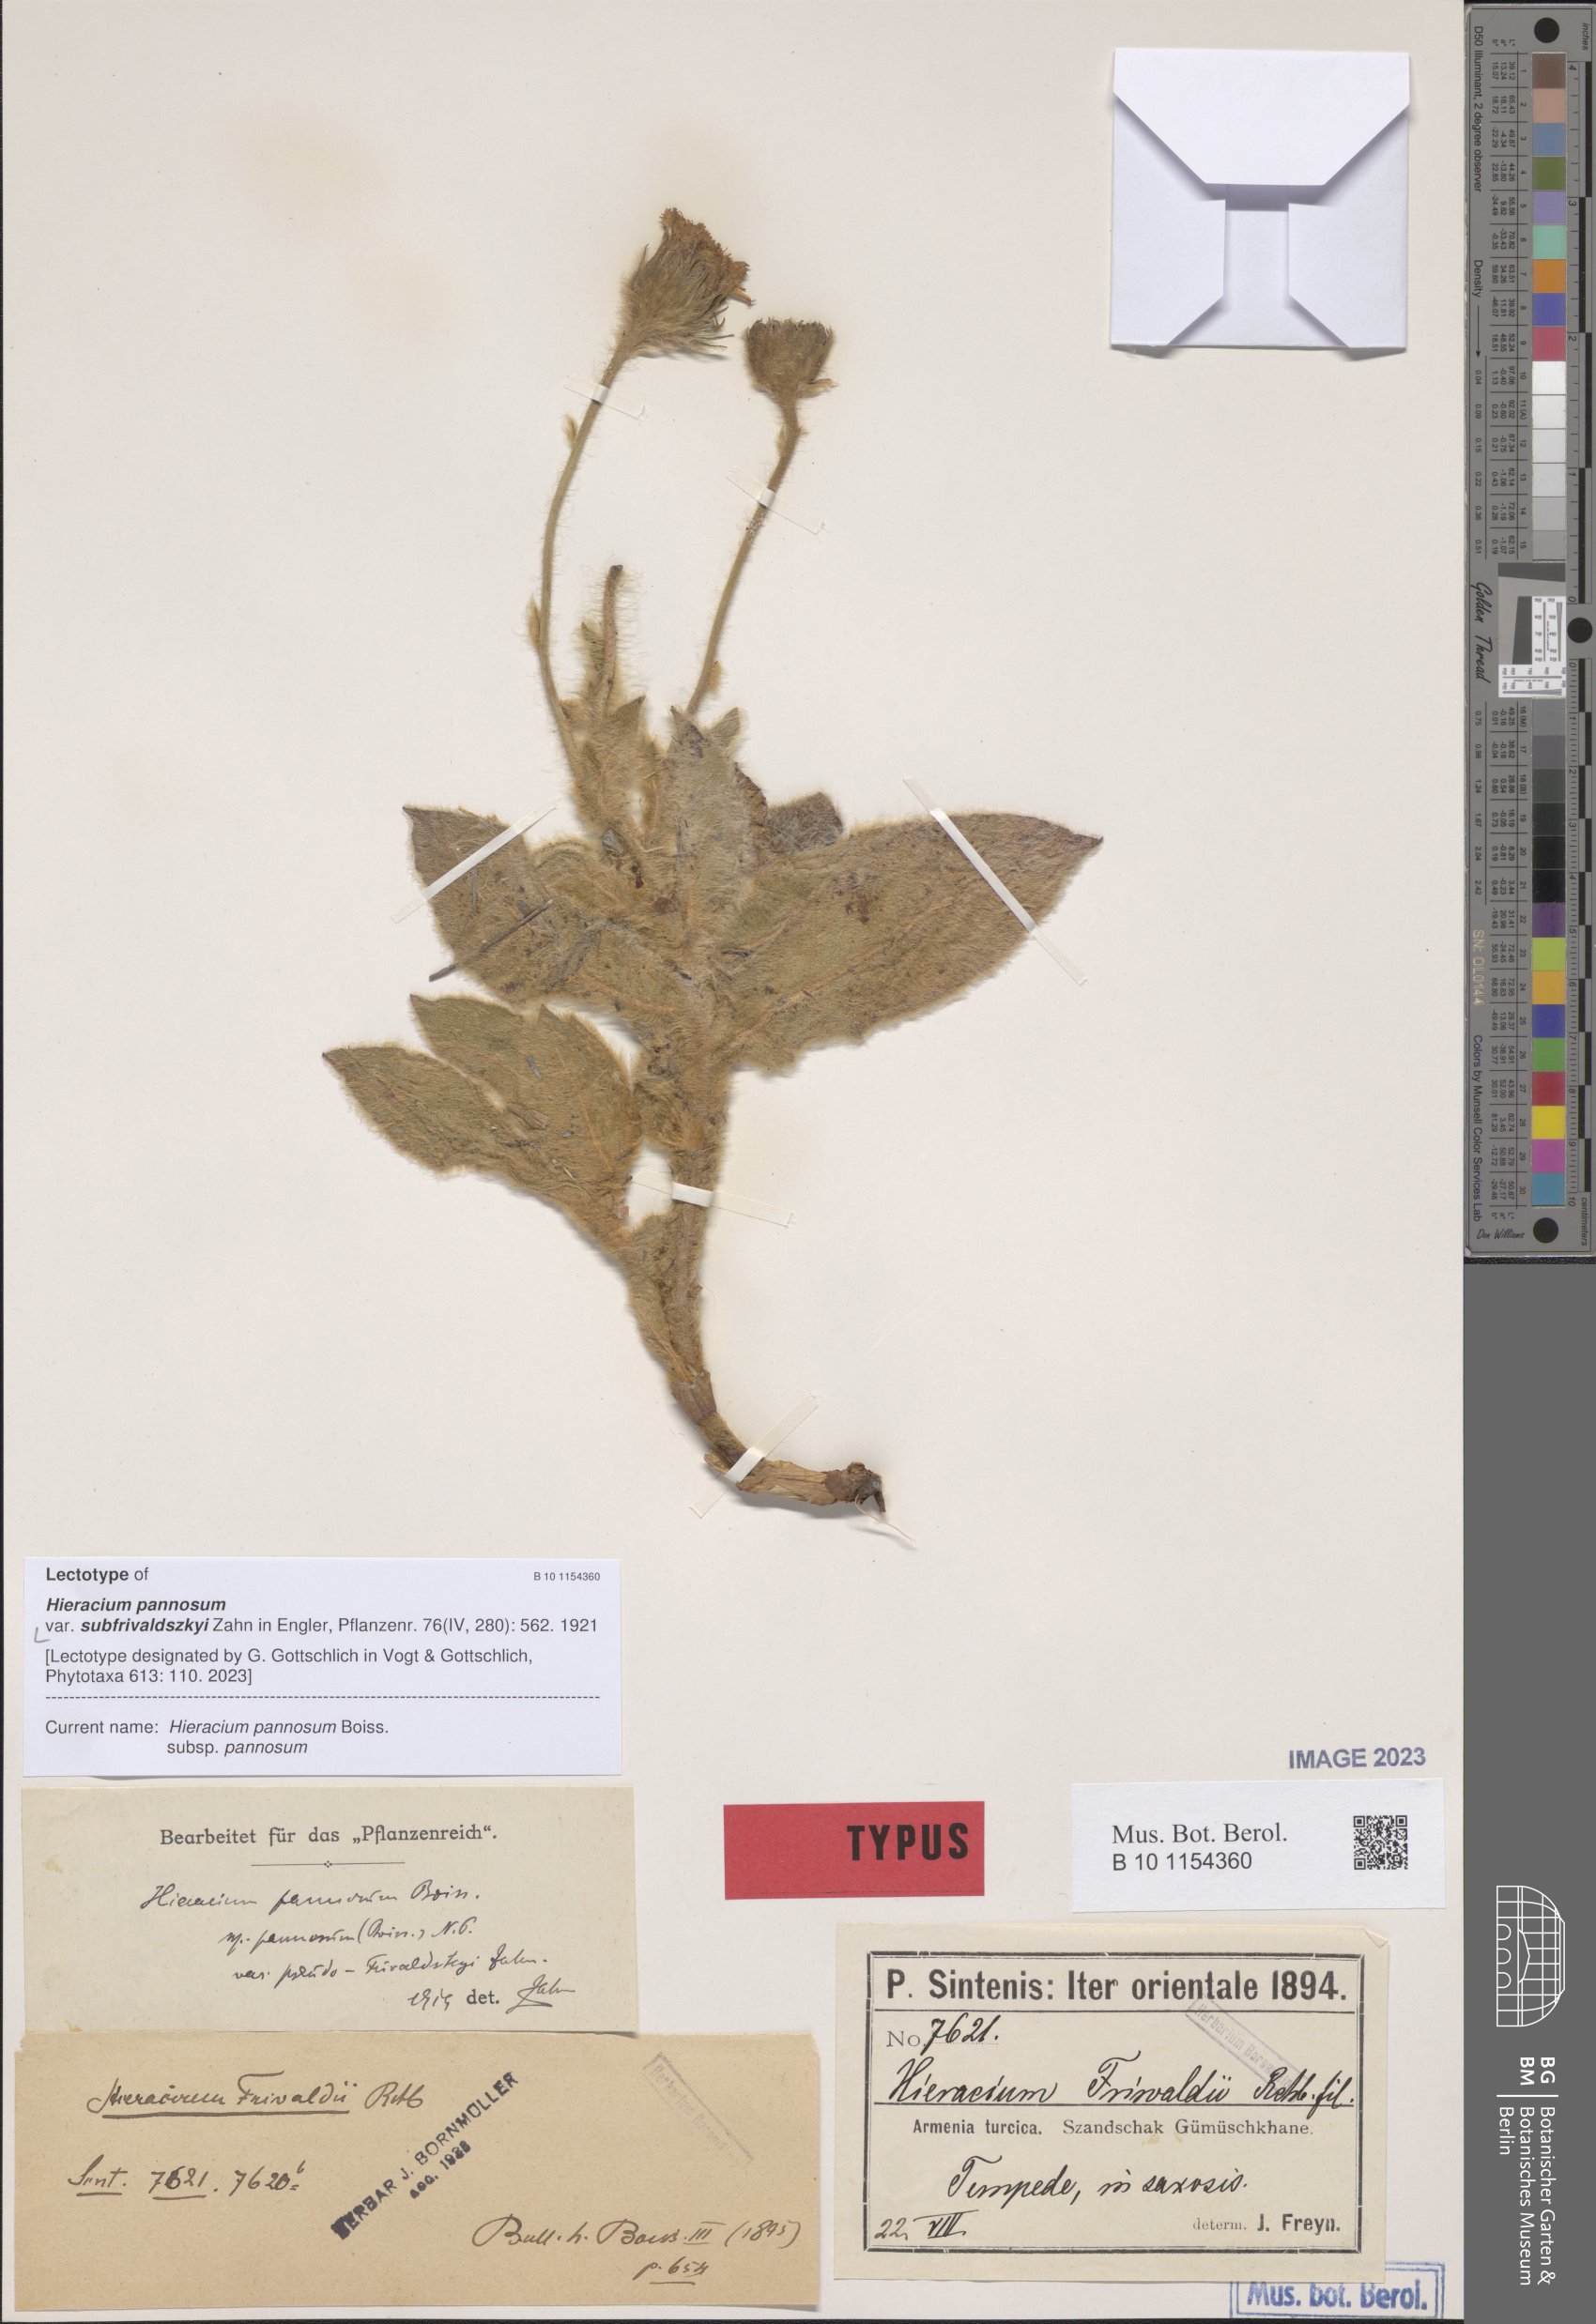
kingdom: Plantae
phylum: Tracheophyta
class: Magnoliopsida
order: Asterales
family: Asteraceae
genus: Hieracium
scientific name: Hieracium pannosum
